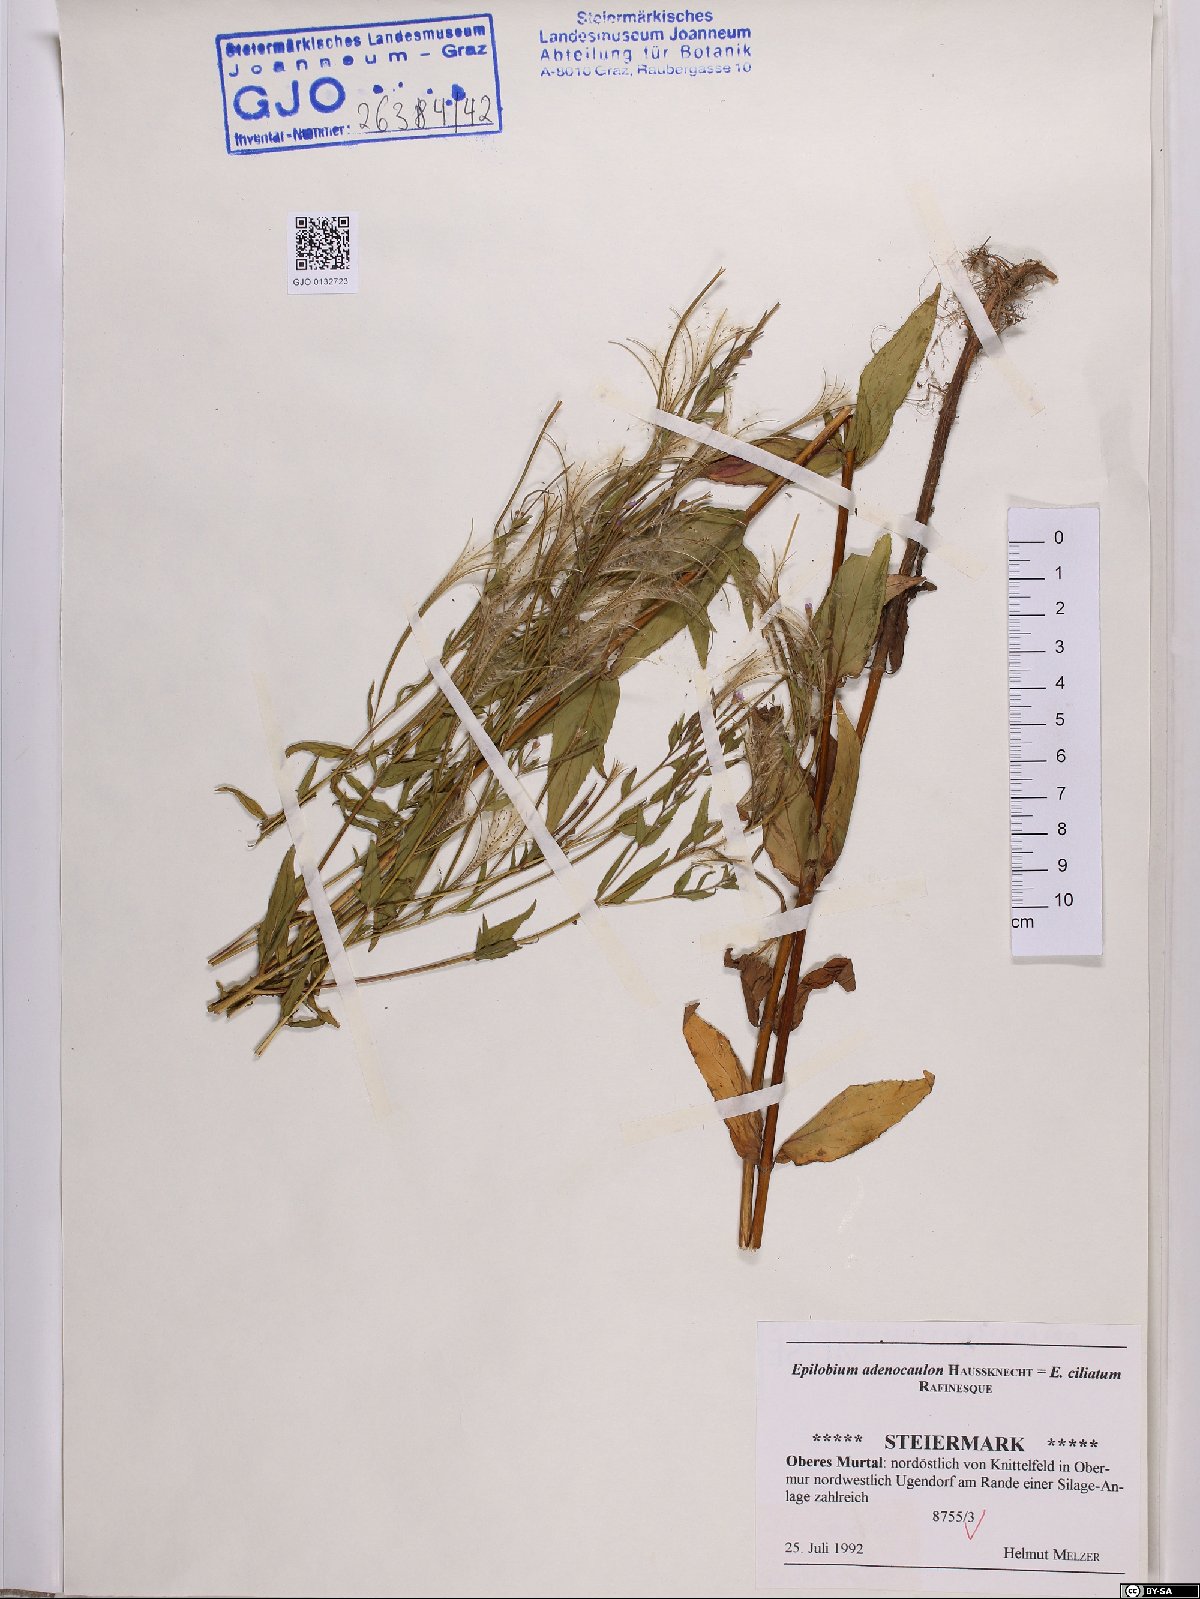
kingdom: Plantae
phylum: Tracheophyta
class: Magnoliopsida
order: Myrtales
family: Onagraceae
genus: Epilobium
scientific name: Epilobium ciliatum
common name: American willowherb
